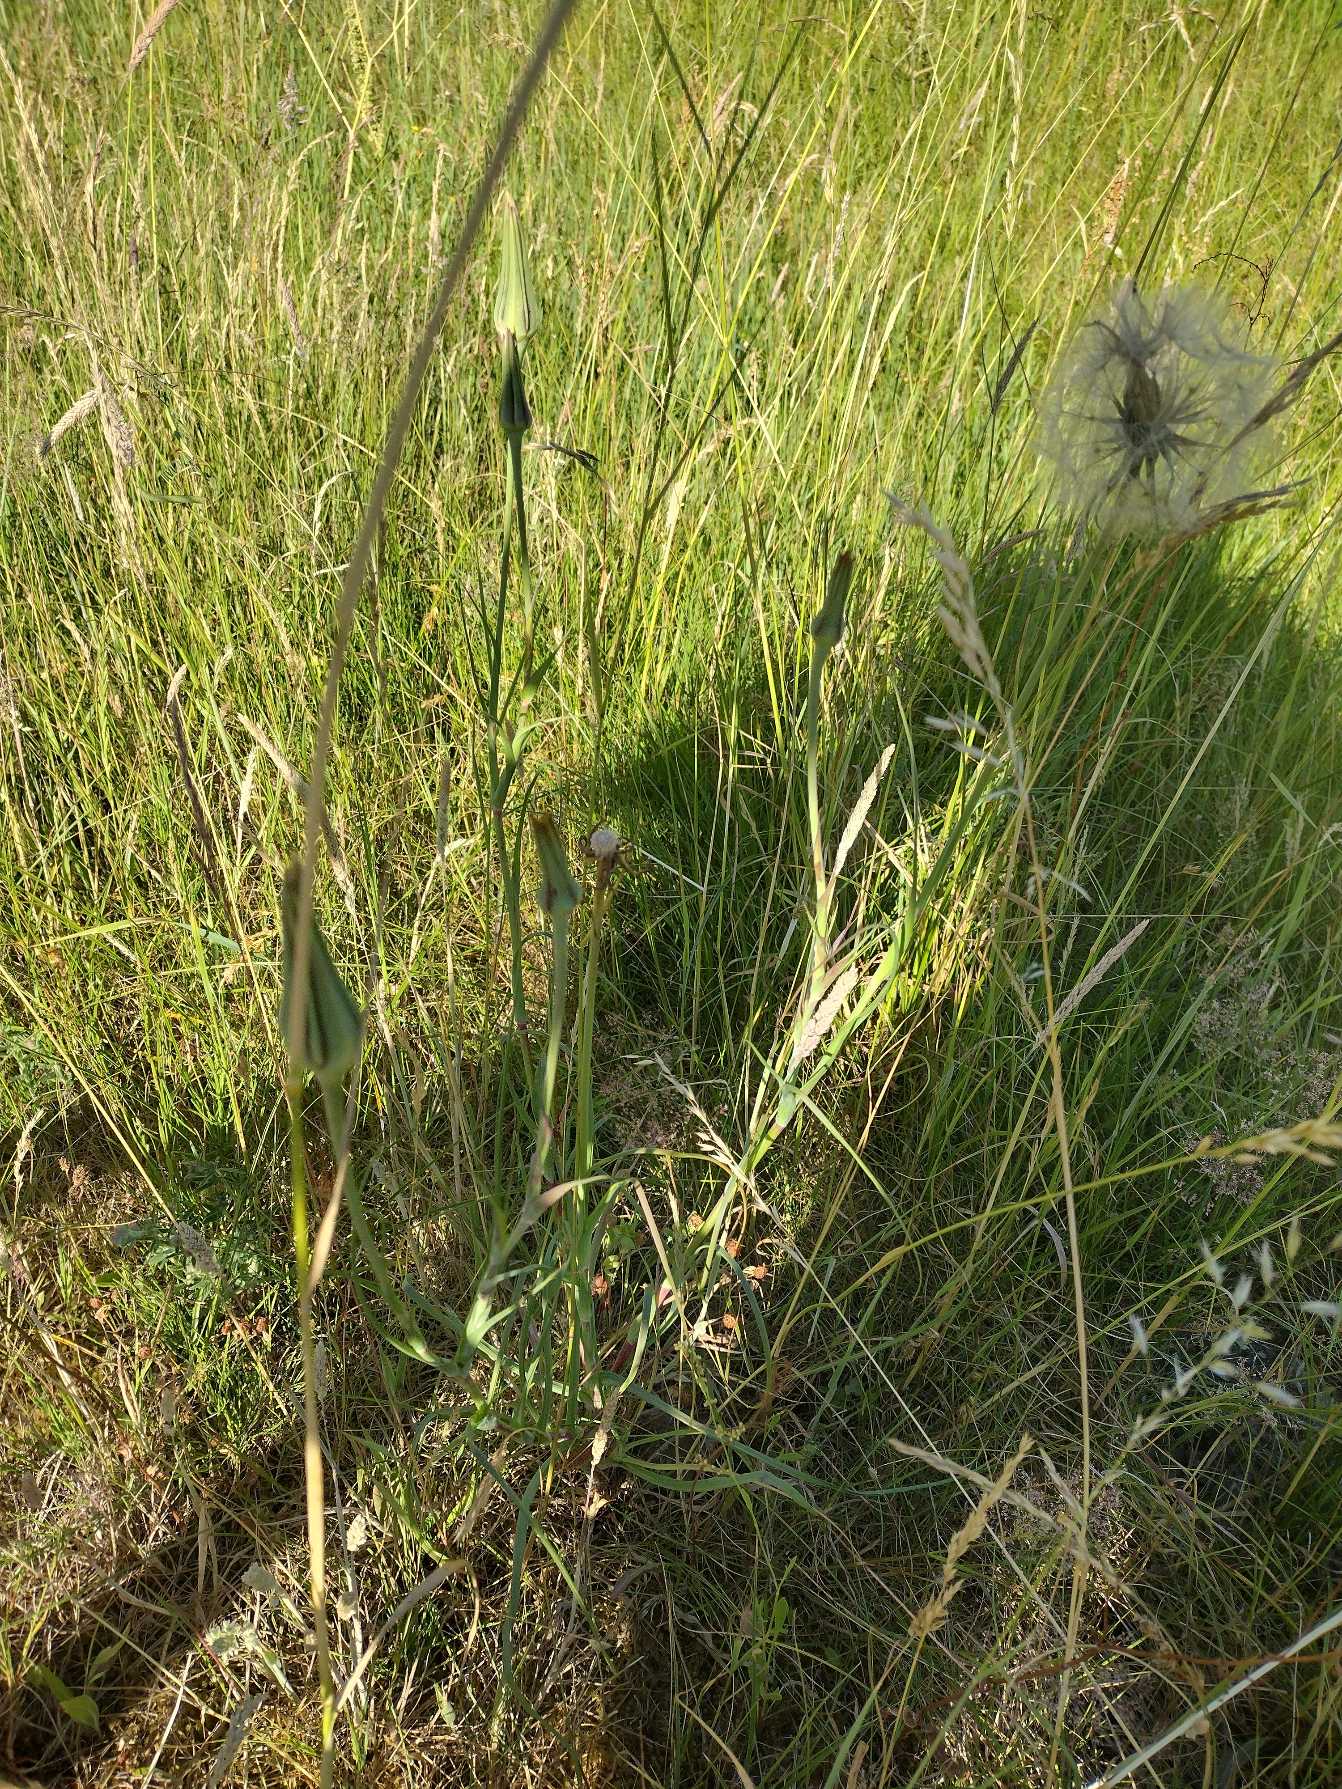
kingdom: Plantae
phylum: Tracheophyta
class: Magnoliopsida
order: Asterales
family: Asteraceae
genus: Tragopogon
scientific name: Tragopogon minor
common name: Småkronet gedeskæg
